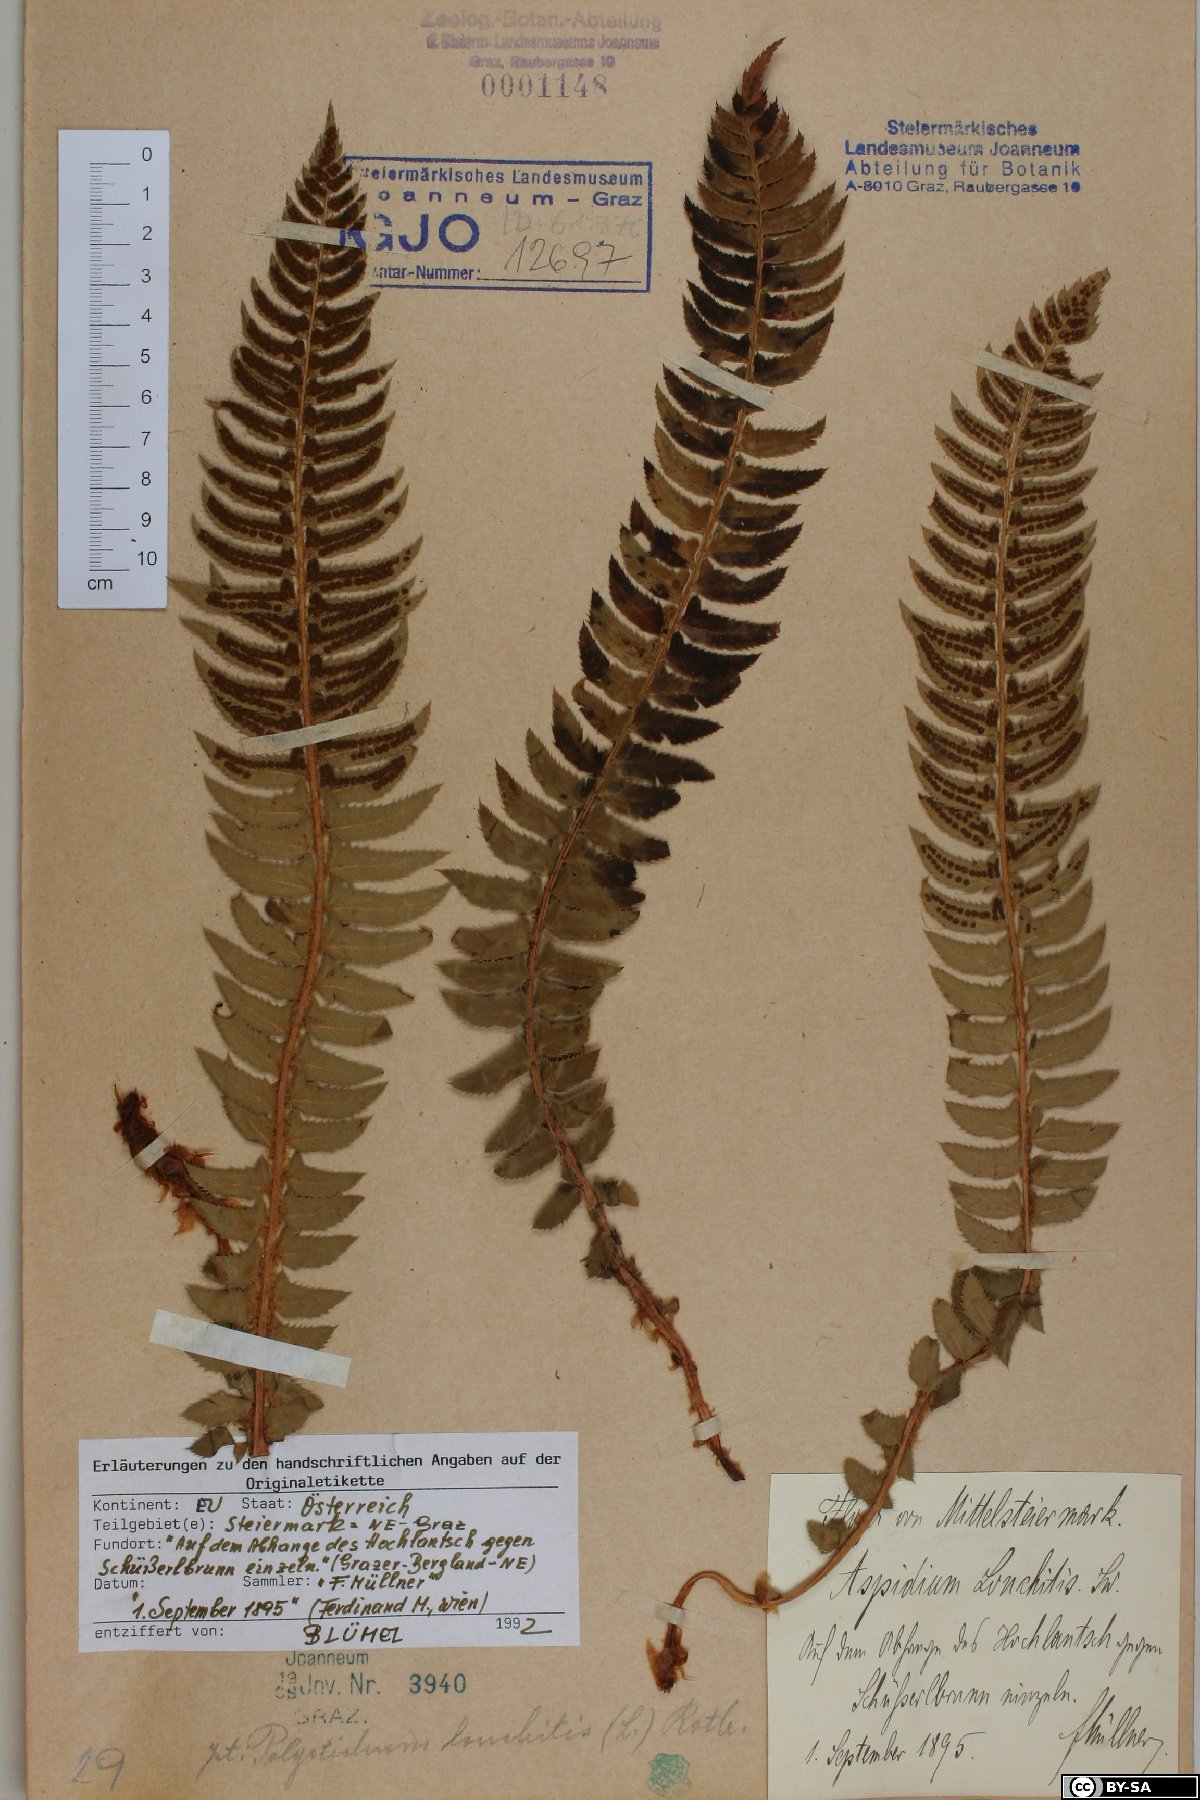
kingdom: Plantae
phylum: Tracheophyta
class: Polypodiopsida
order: Polypodiales
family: Dryopteridaceae
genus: Polystichum
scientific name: Polystichum lonchitis
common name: Holly fern
